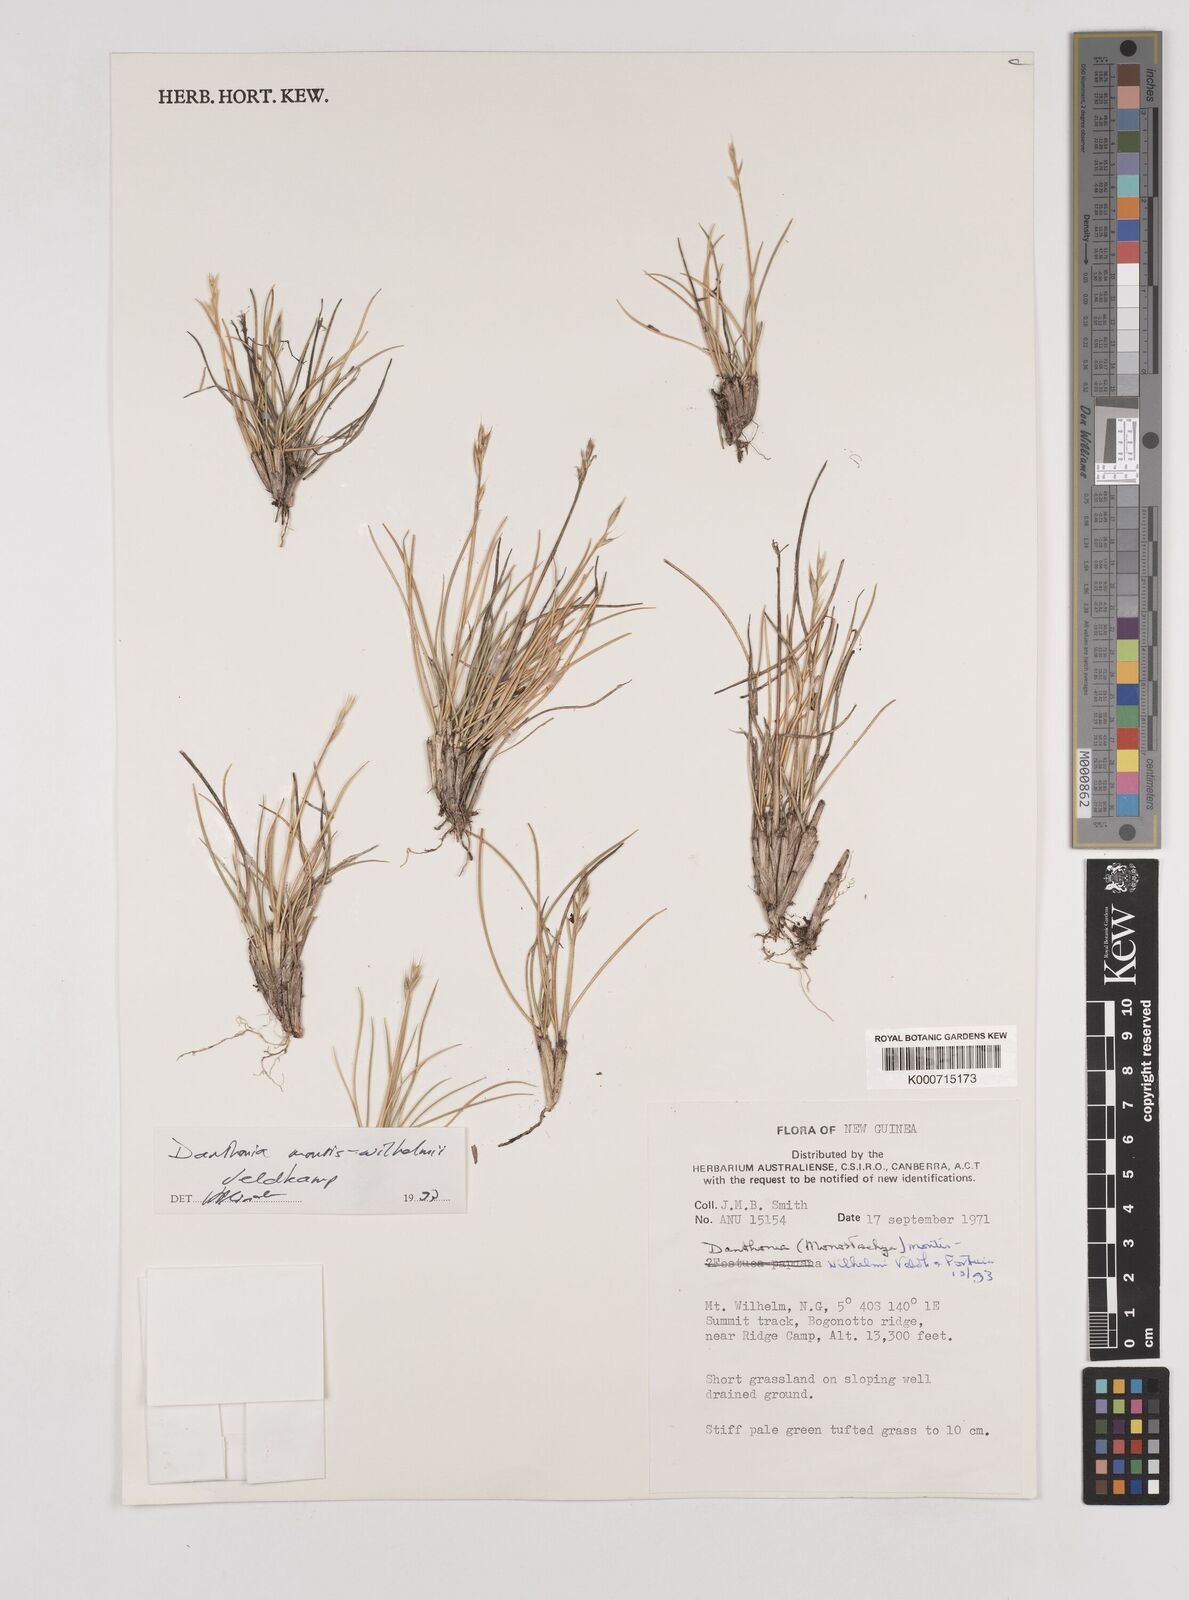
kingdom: Plantae
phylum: Tracheophyta
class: Liliopsida
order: Poales
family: Poaceae
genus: Rytidosperma
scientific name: Rytidosperma montis-wilhelmi
